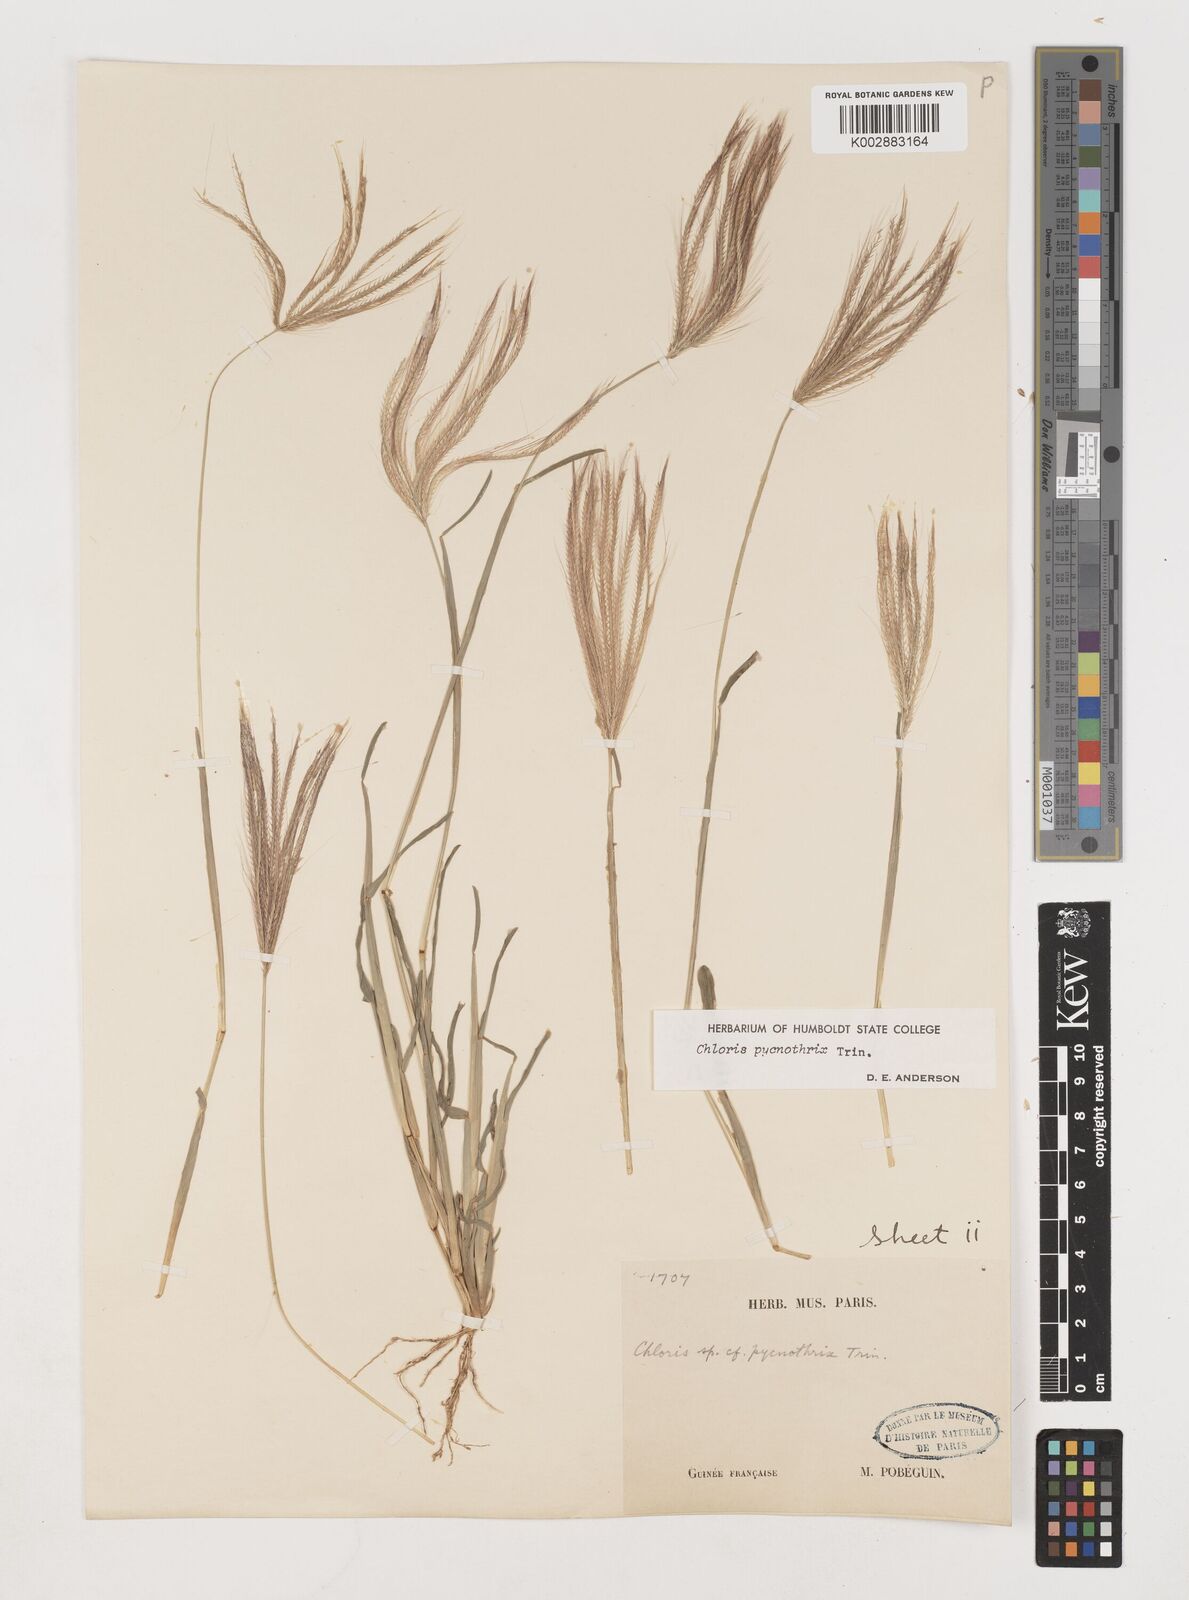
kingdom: Plantae
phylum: Tracheophyta
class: Liliopsida
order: Poales
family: Poaceae
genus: Chloris
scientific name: Chloris pycnothrix
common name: Spiderweb chloris
